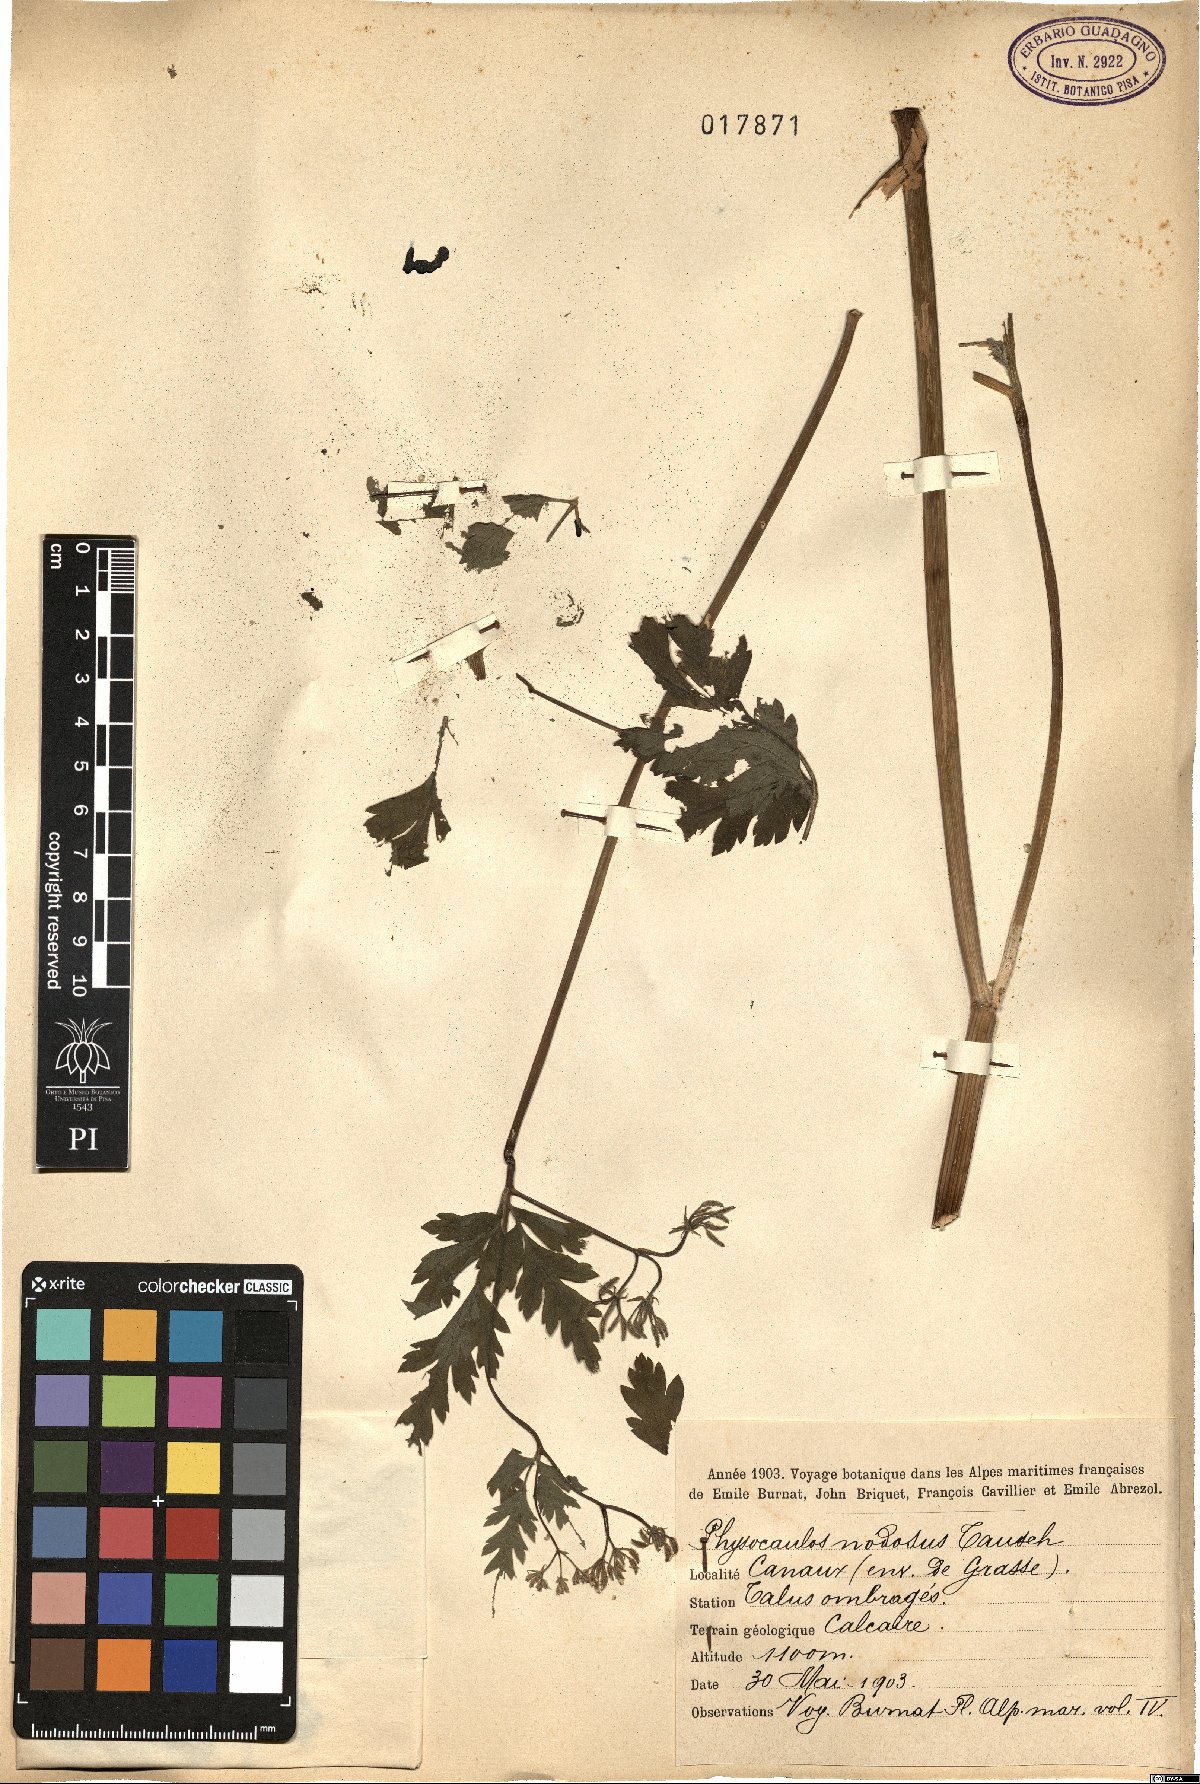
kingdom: Plantae
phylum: Tracheophyta
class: Magnoliopsida
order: Apiales
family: Apiaceae
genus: Chaerophyllum
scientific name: Chaerophyllum nodosum
